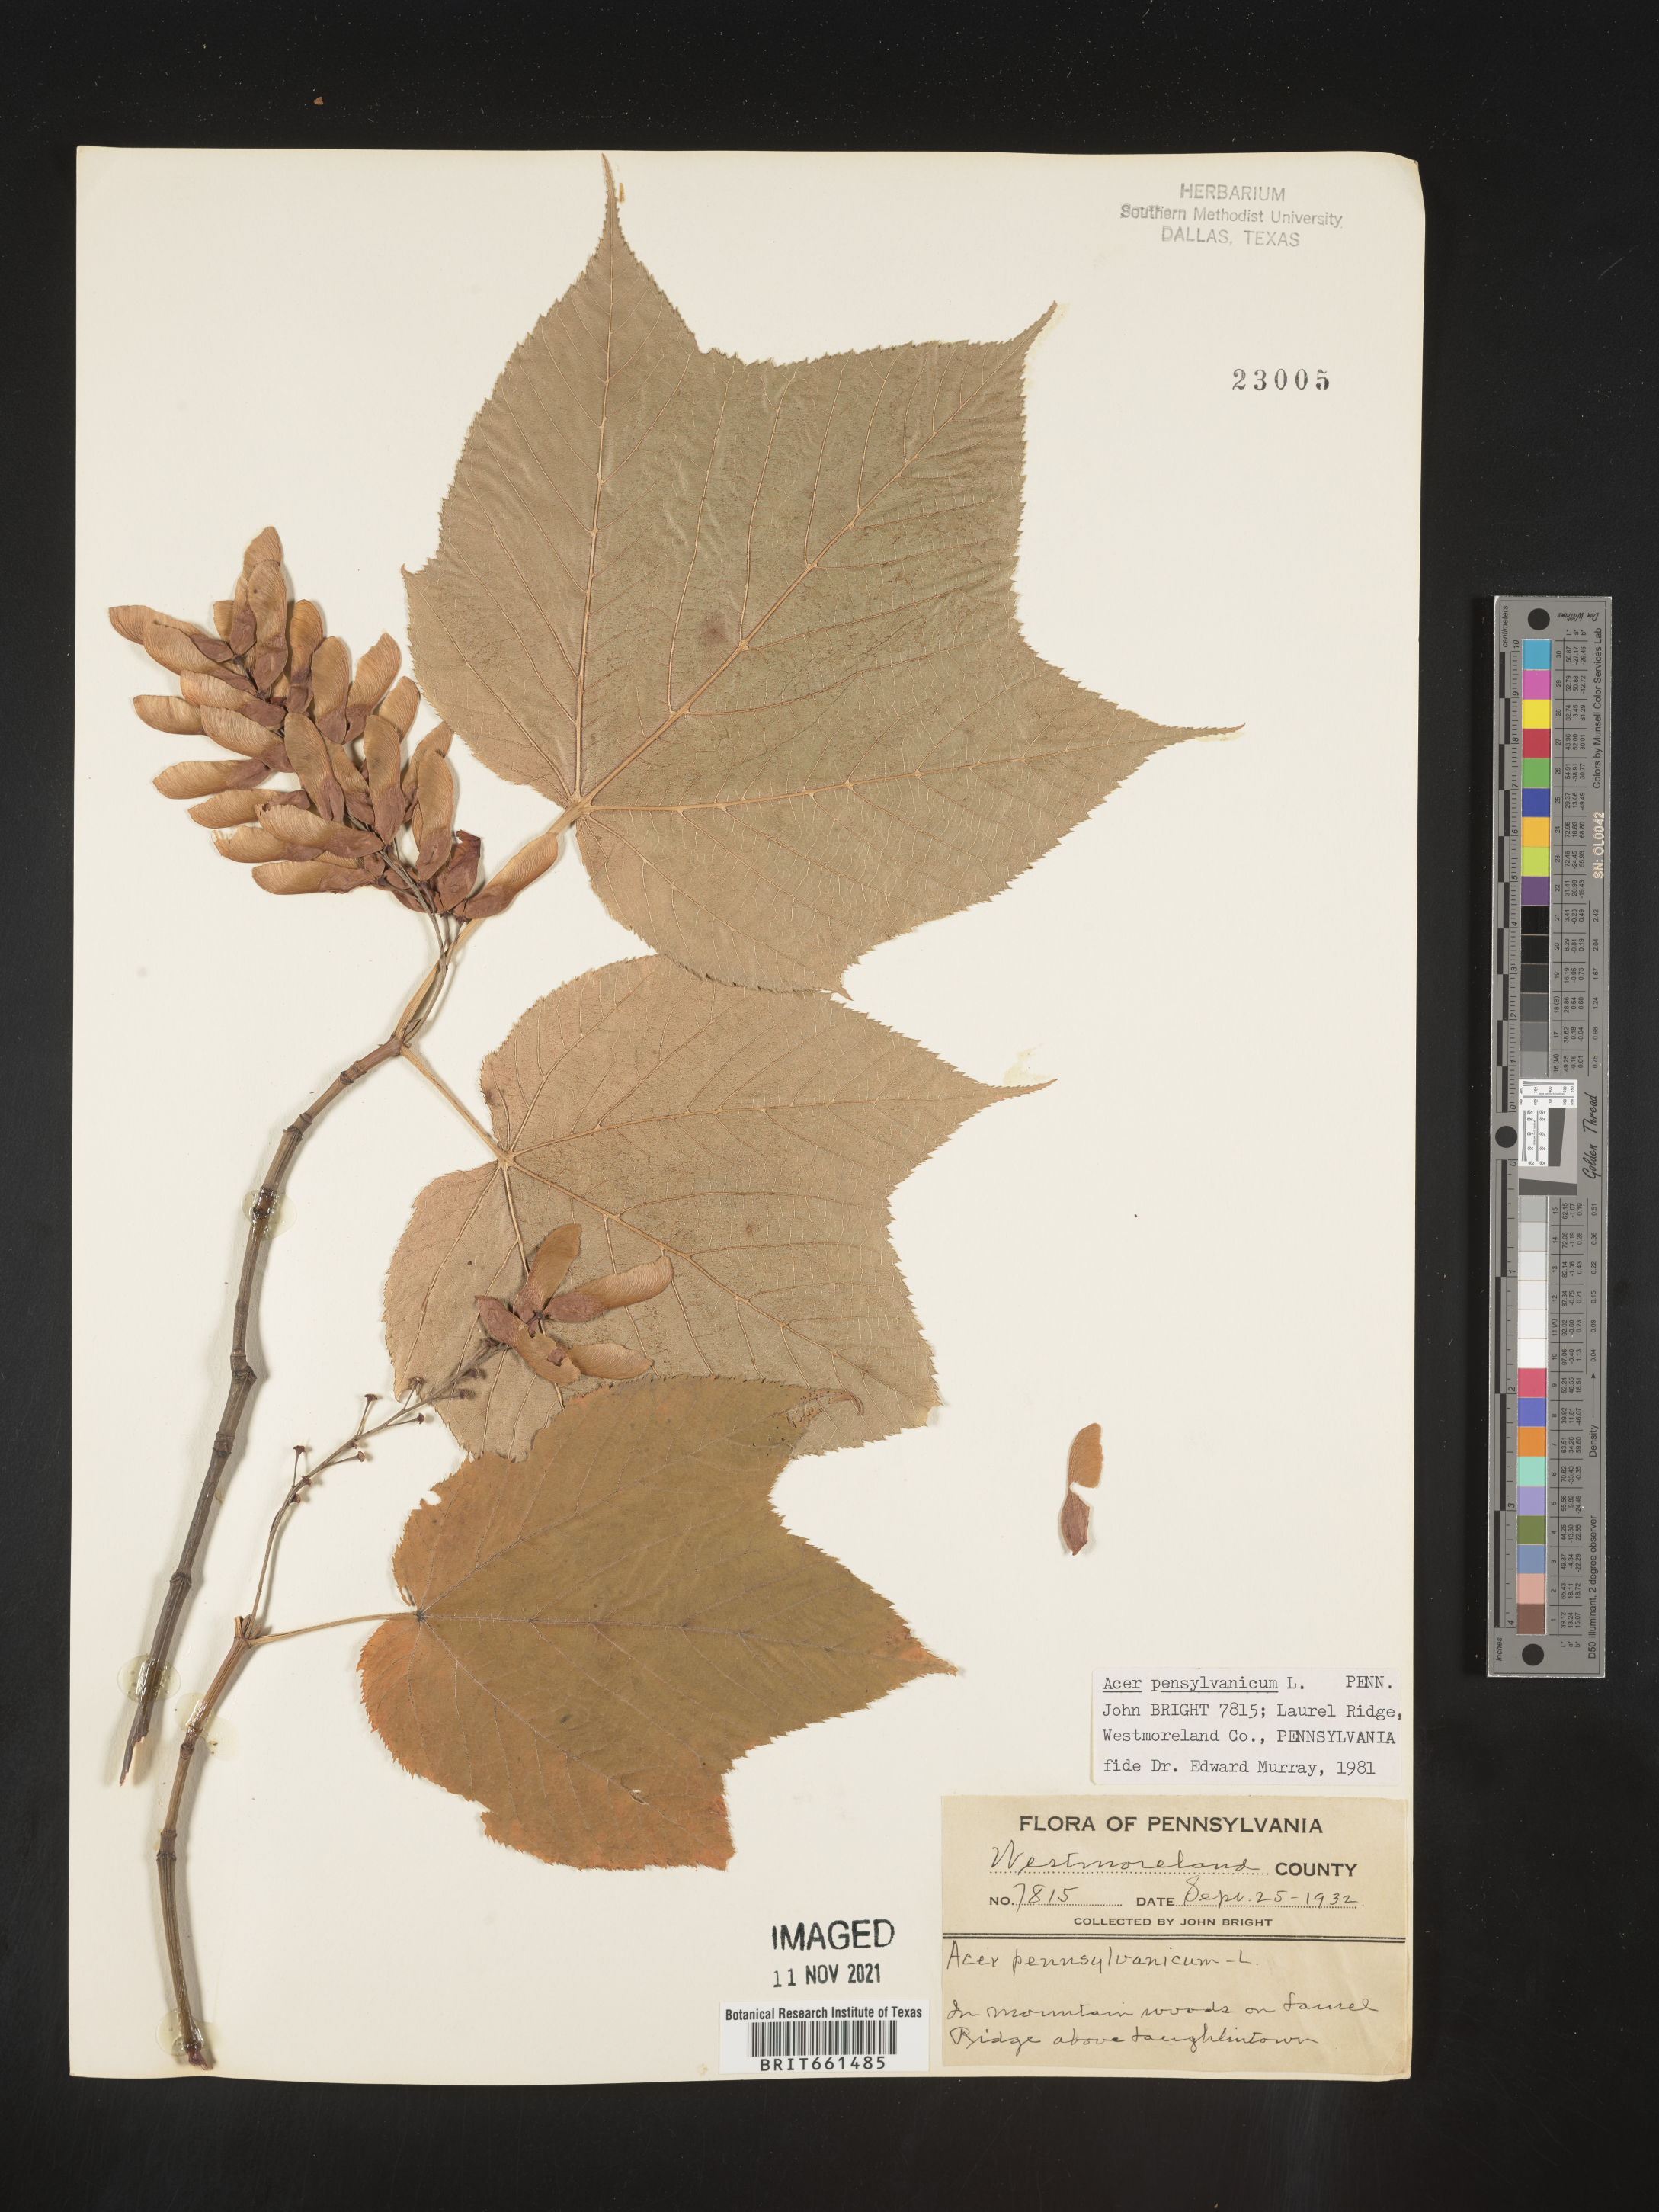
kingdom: Plantae
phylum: Tracheophyta
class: Magnoliopsida
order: Sapindales
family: Sapindaceae
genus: Acer
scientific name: Acer pensylvanicum
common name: Moosewood
